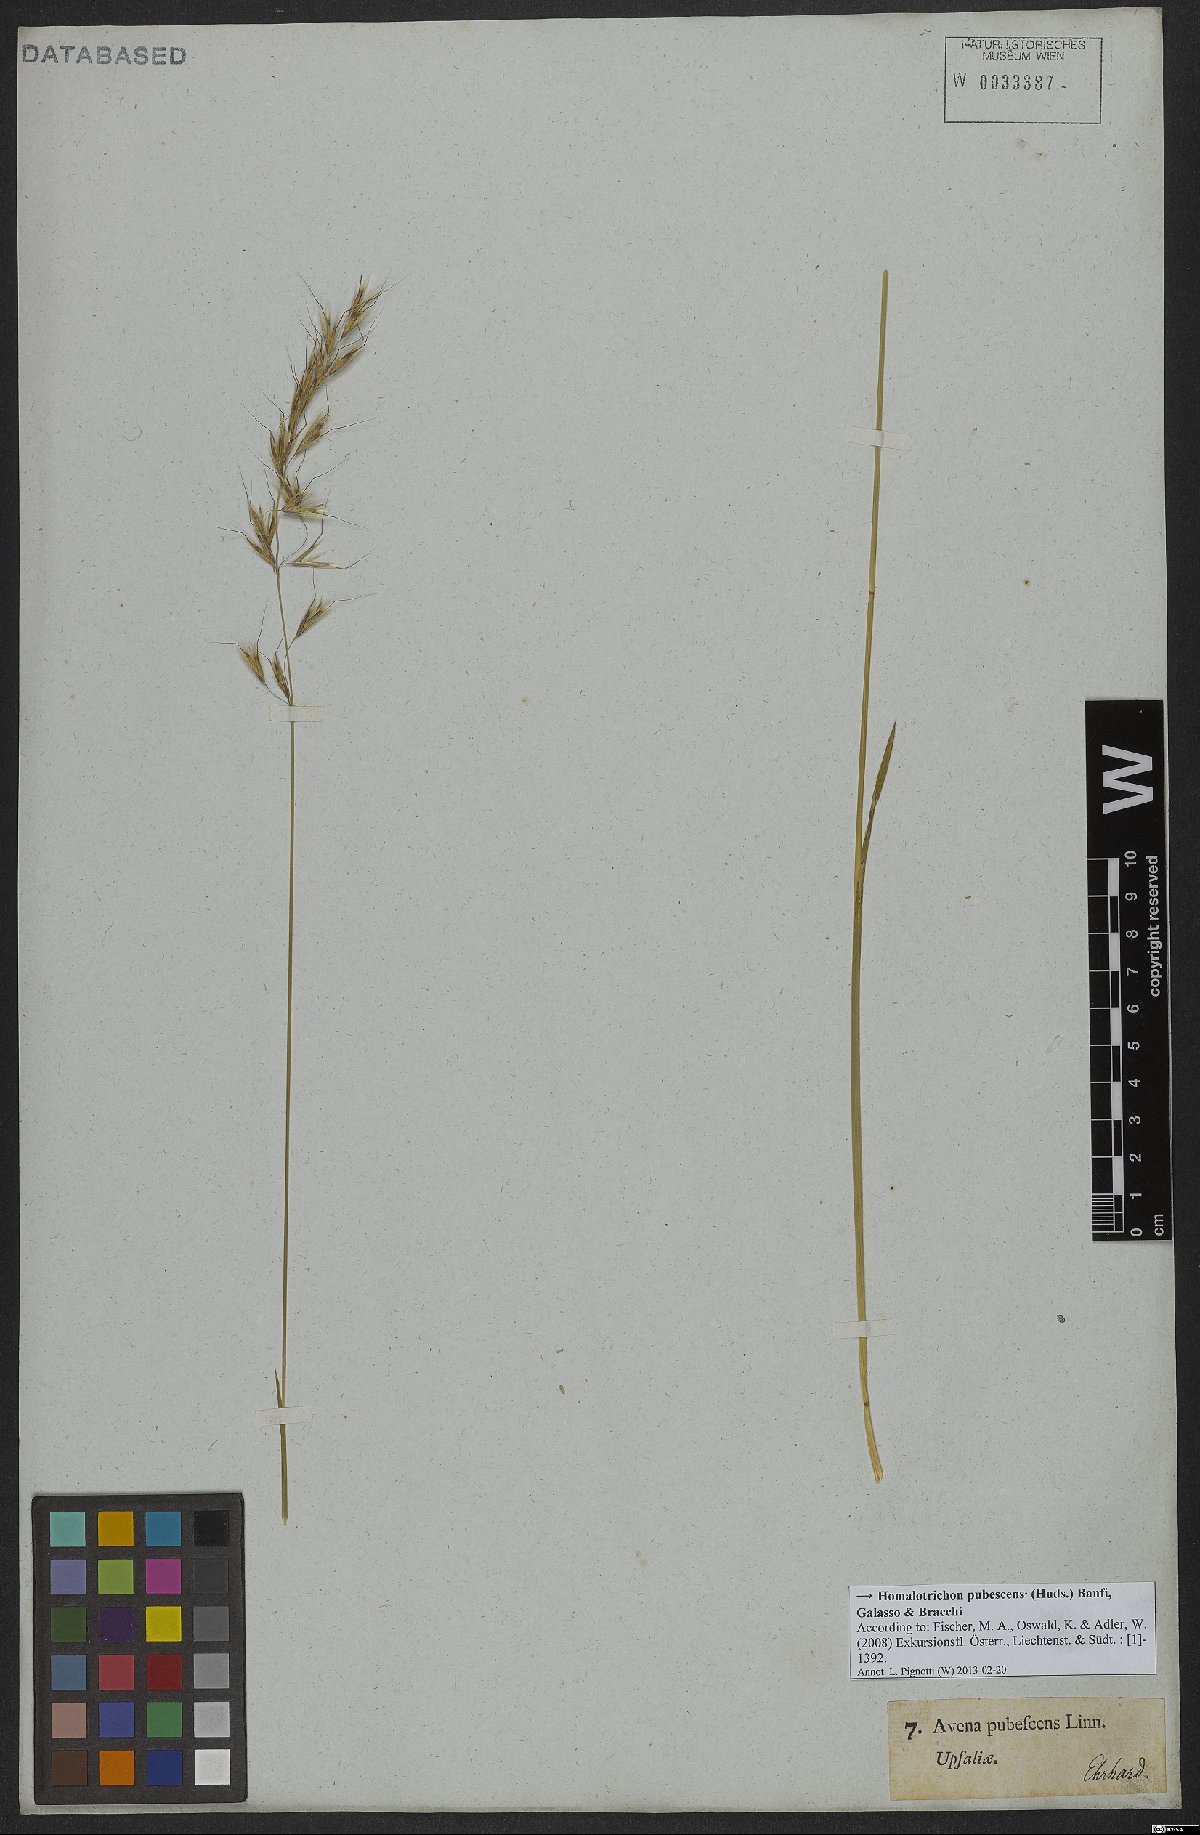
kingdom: Plantae
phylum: Tracheophyta
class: Liliopsida
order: Poales
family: Poaceae
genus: Avenula
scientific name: Avenula pubescens
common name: Downy alpine oatgrass
